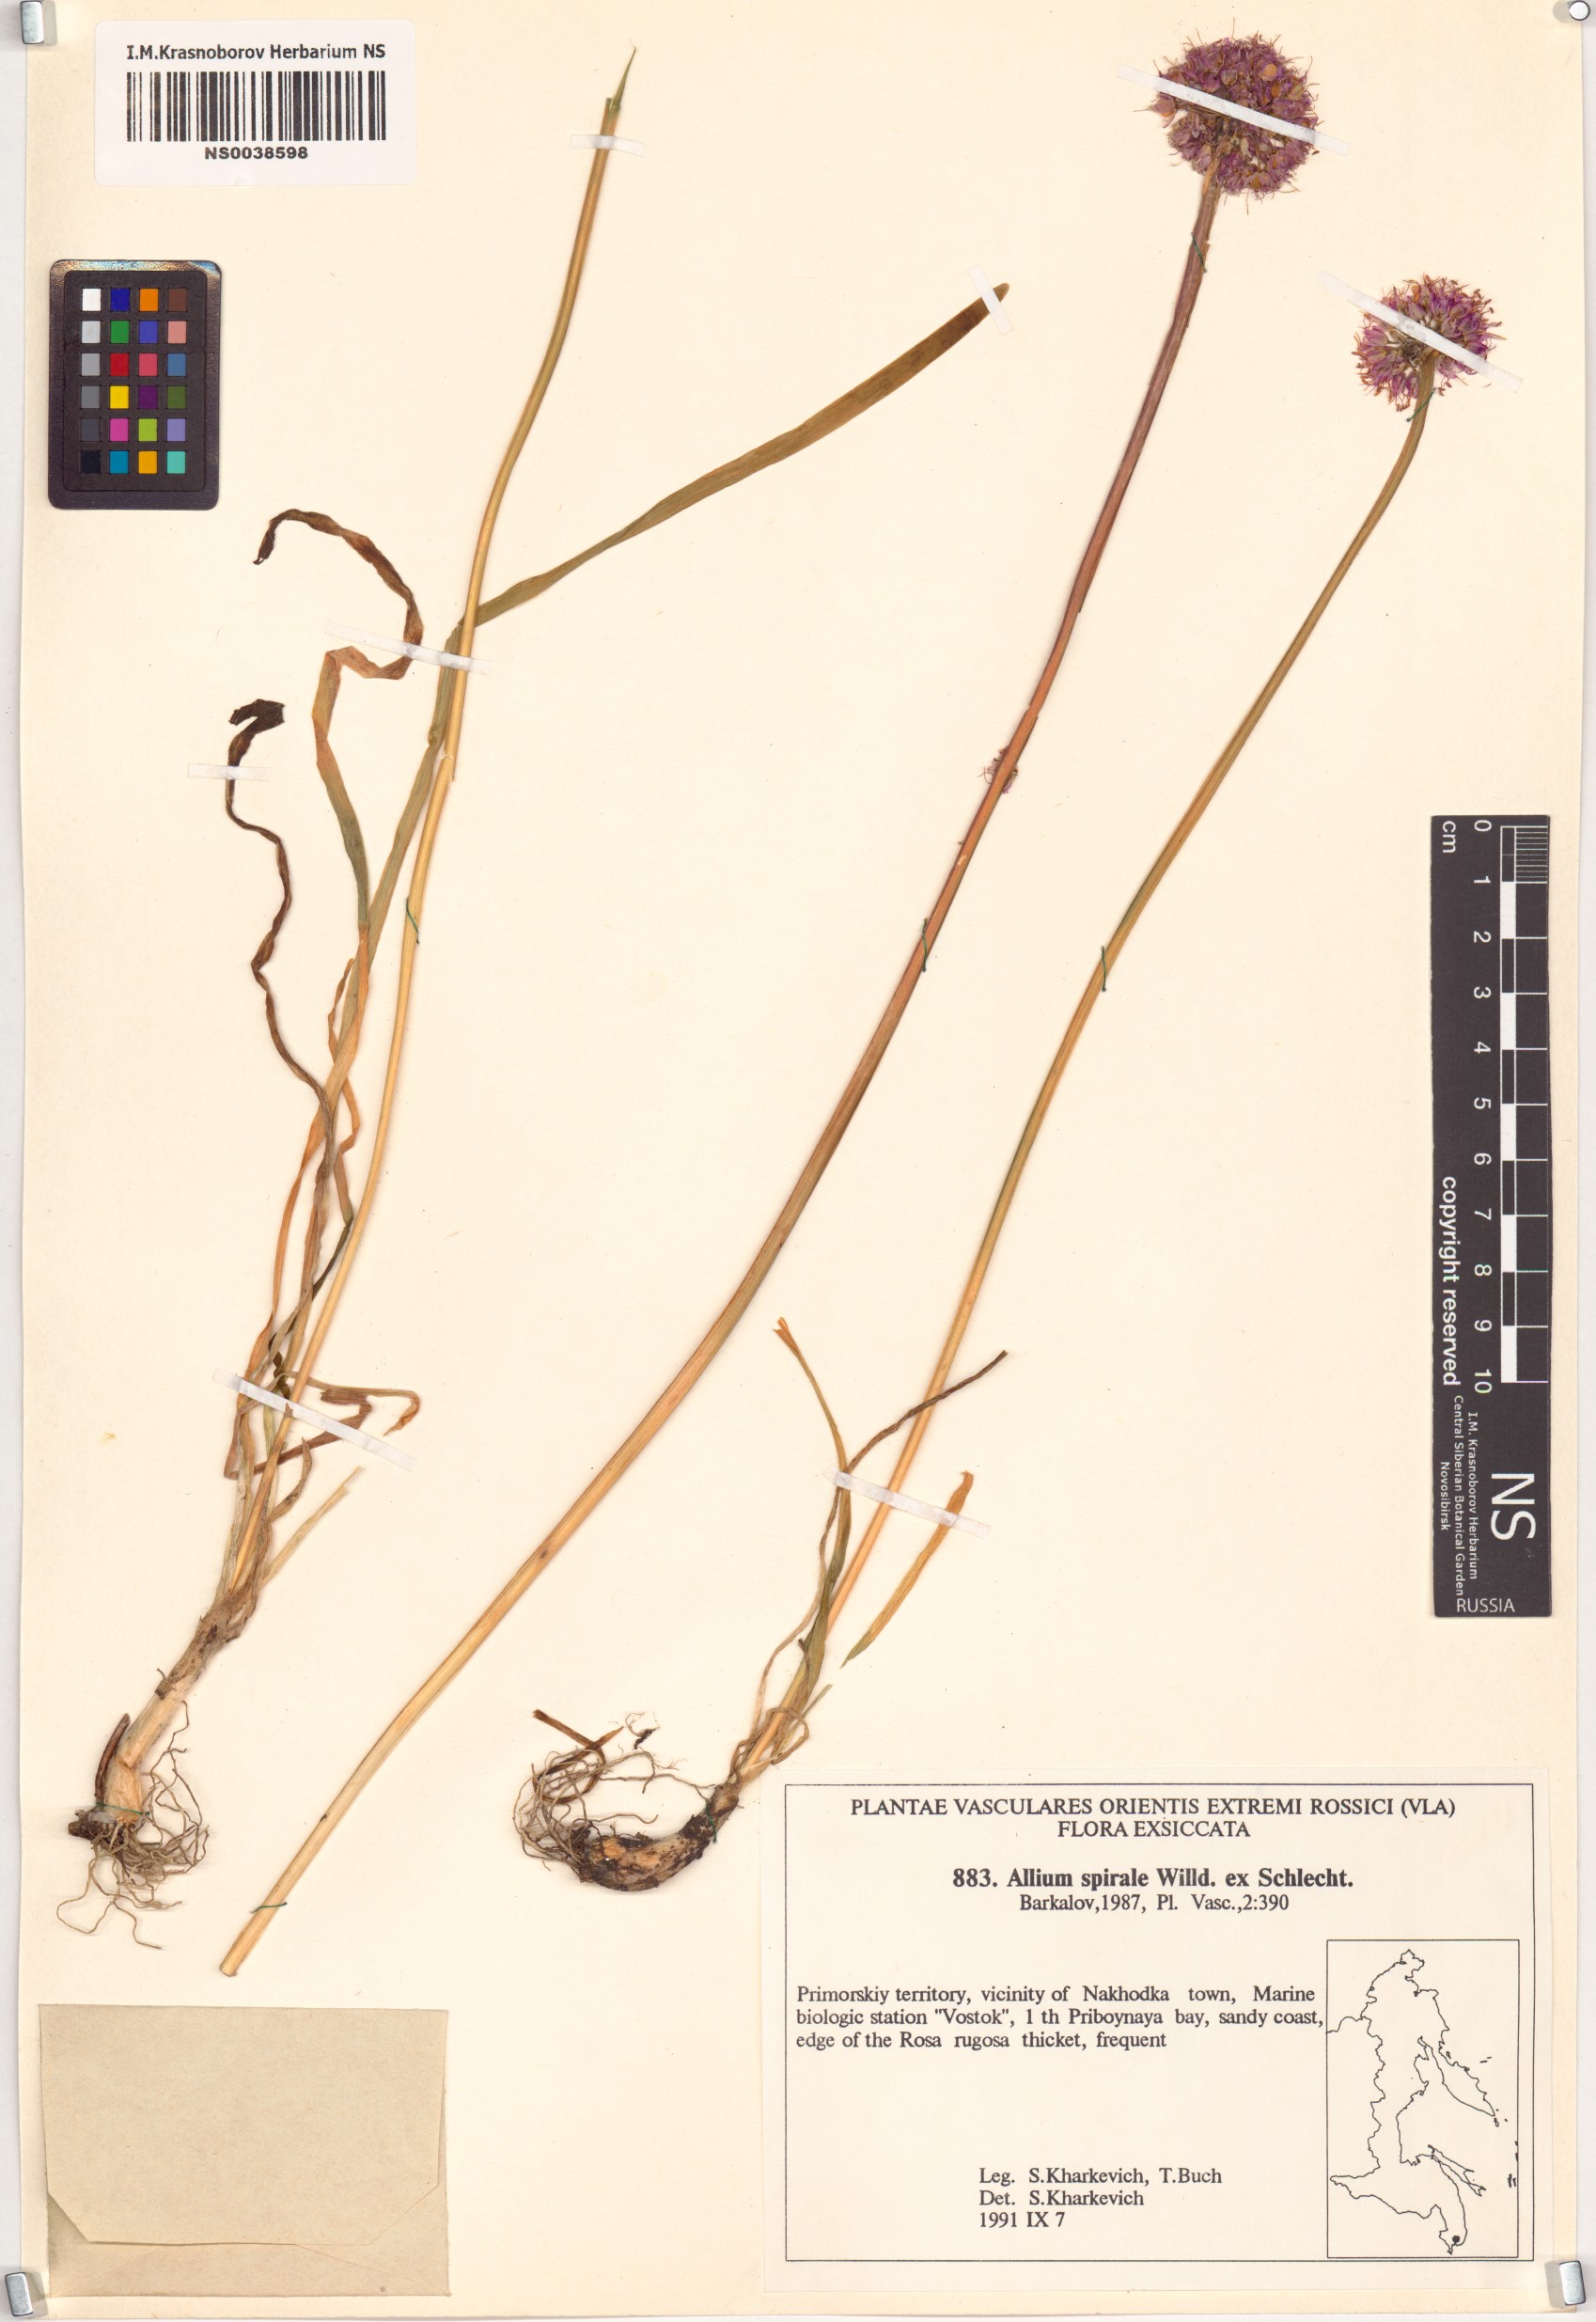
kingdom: Plantae
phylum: Tracheophyta
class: Liliopsida
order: Asparagales
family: Amaryllidaceae
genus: Allium
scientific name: Allium spirale
